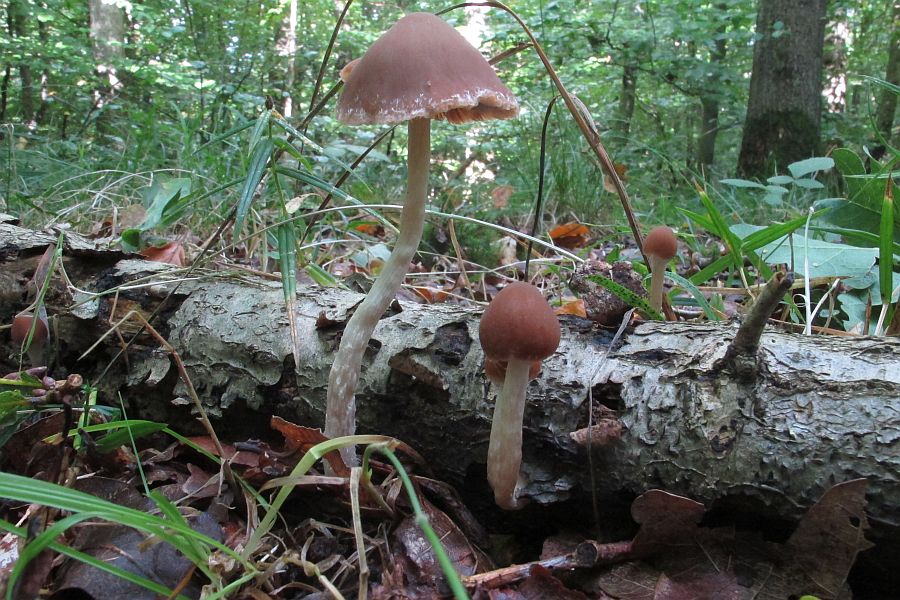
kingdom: Fungi
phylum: Basidiomycota
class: Agaricomycetes
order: Agaricales
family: Psathyrellaceae
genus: Psathyrella
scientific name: Psathyrella senex
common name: brunøjet mørkhat
